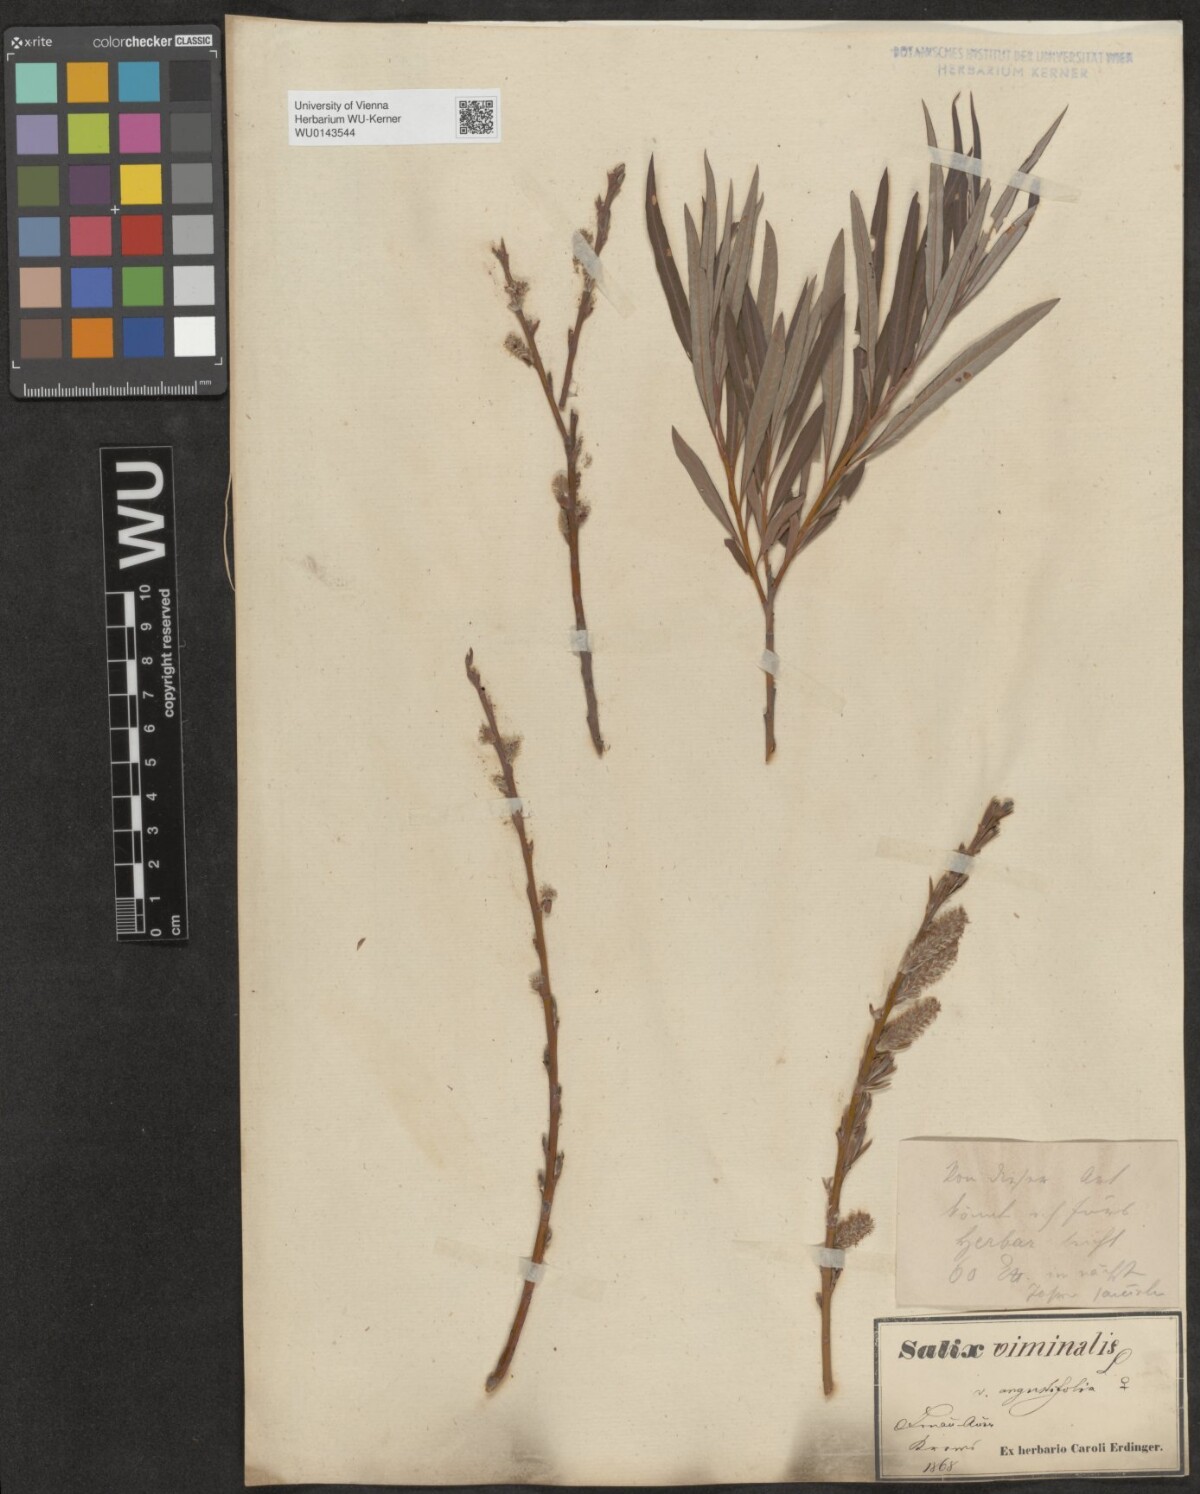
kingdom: Plantae
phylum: Tracheophyta
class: Magnoliopsida
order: Malpighiales
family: Salicaceae
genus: Salix
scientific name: Salix viminalis
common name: Osier
